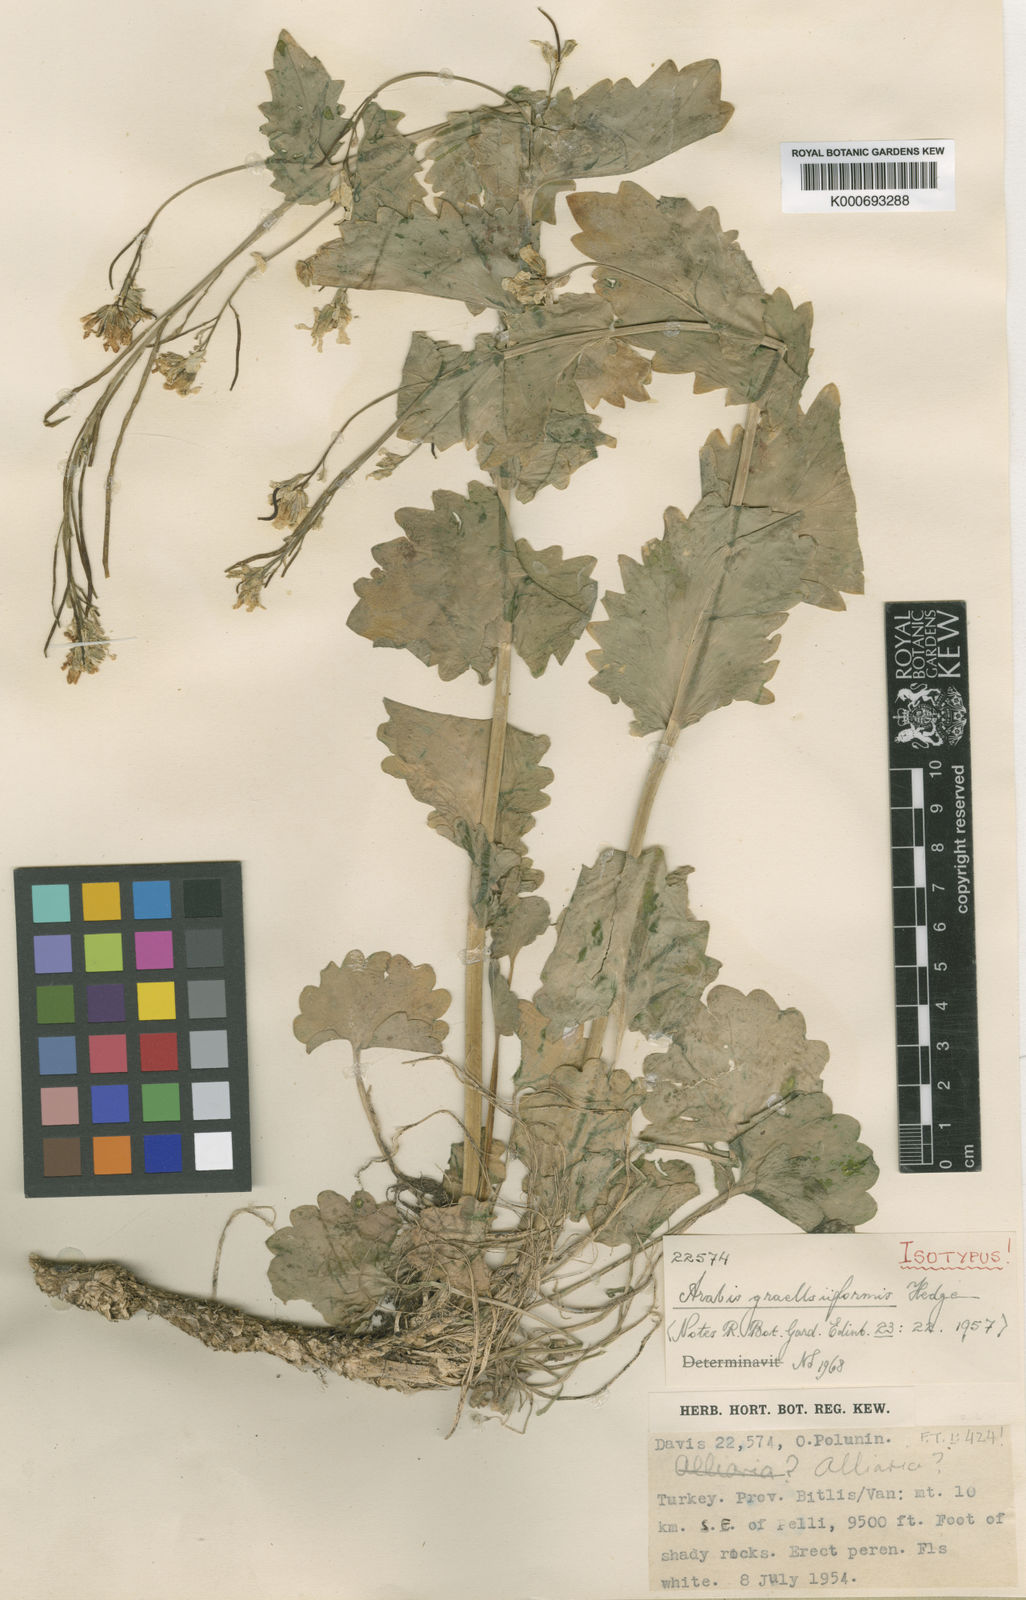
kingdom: Plantae
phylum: Tracheophyta
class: Magnoliopsida
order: Brassicales
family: Brassicaceae
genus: Arabis
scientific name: Arabis graellsiiformis
